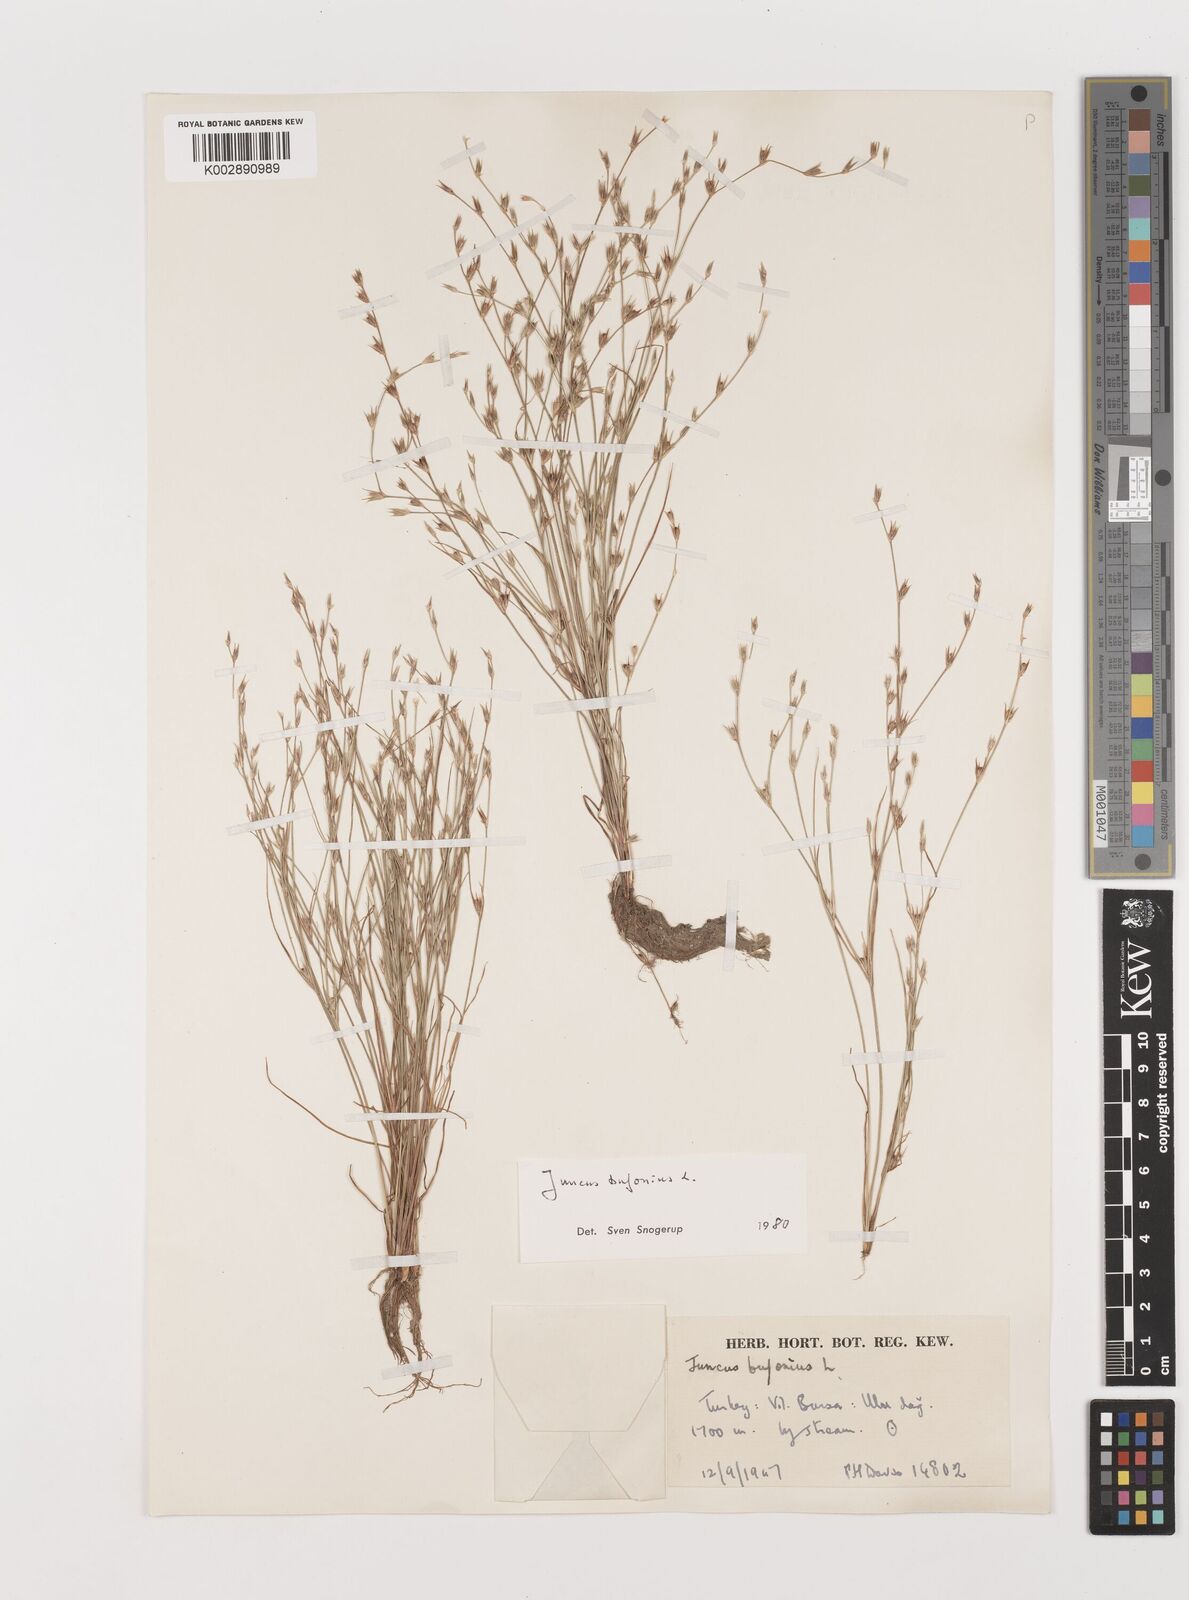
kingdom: Plantae
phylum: Tracheophyta
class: Liliopsida
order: Poales
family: Juncaceae
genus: Juncus
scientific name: Juncus bufonius
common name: Toad rush
